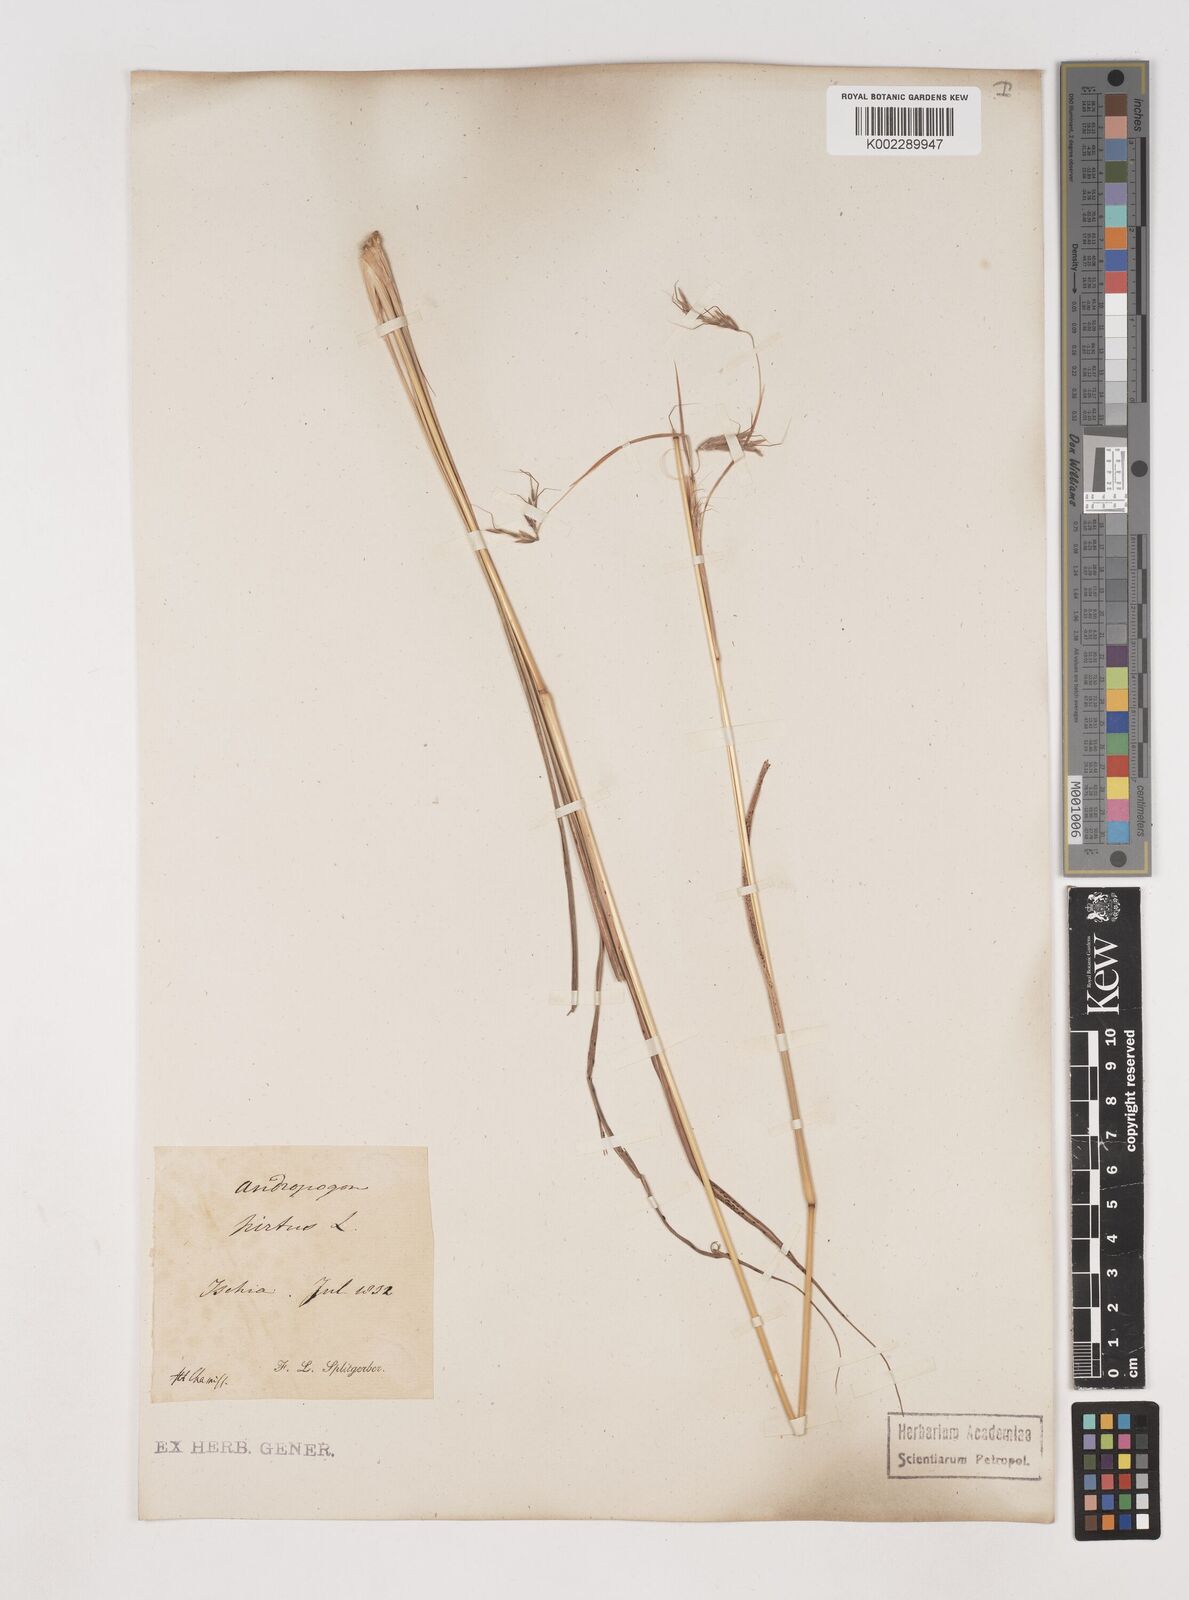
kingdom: Plantae
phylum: Tracheophyta
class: Liliopsida
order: Poales
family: Poaceae
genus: Hyparrhenia
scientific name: Hyparrhenia hirta
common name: Thatching grass
